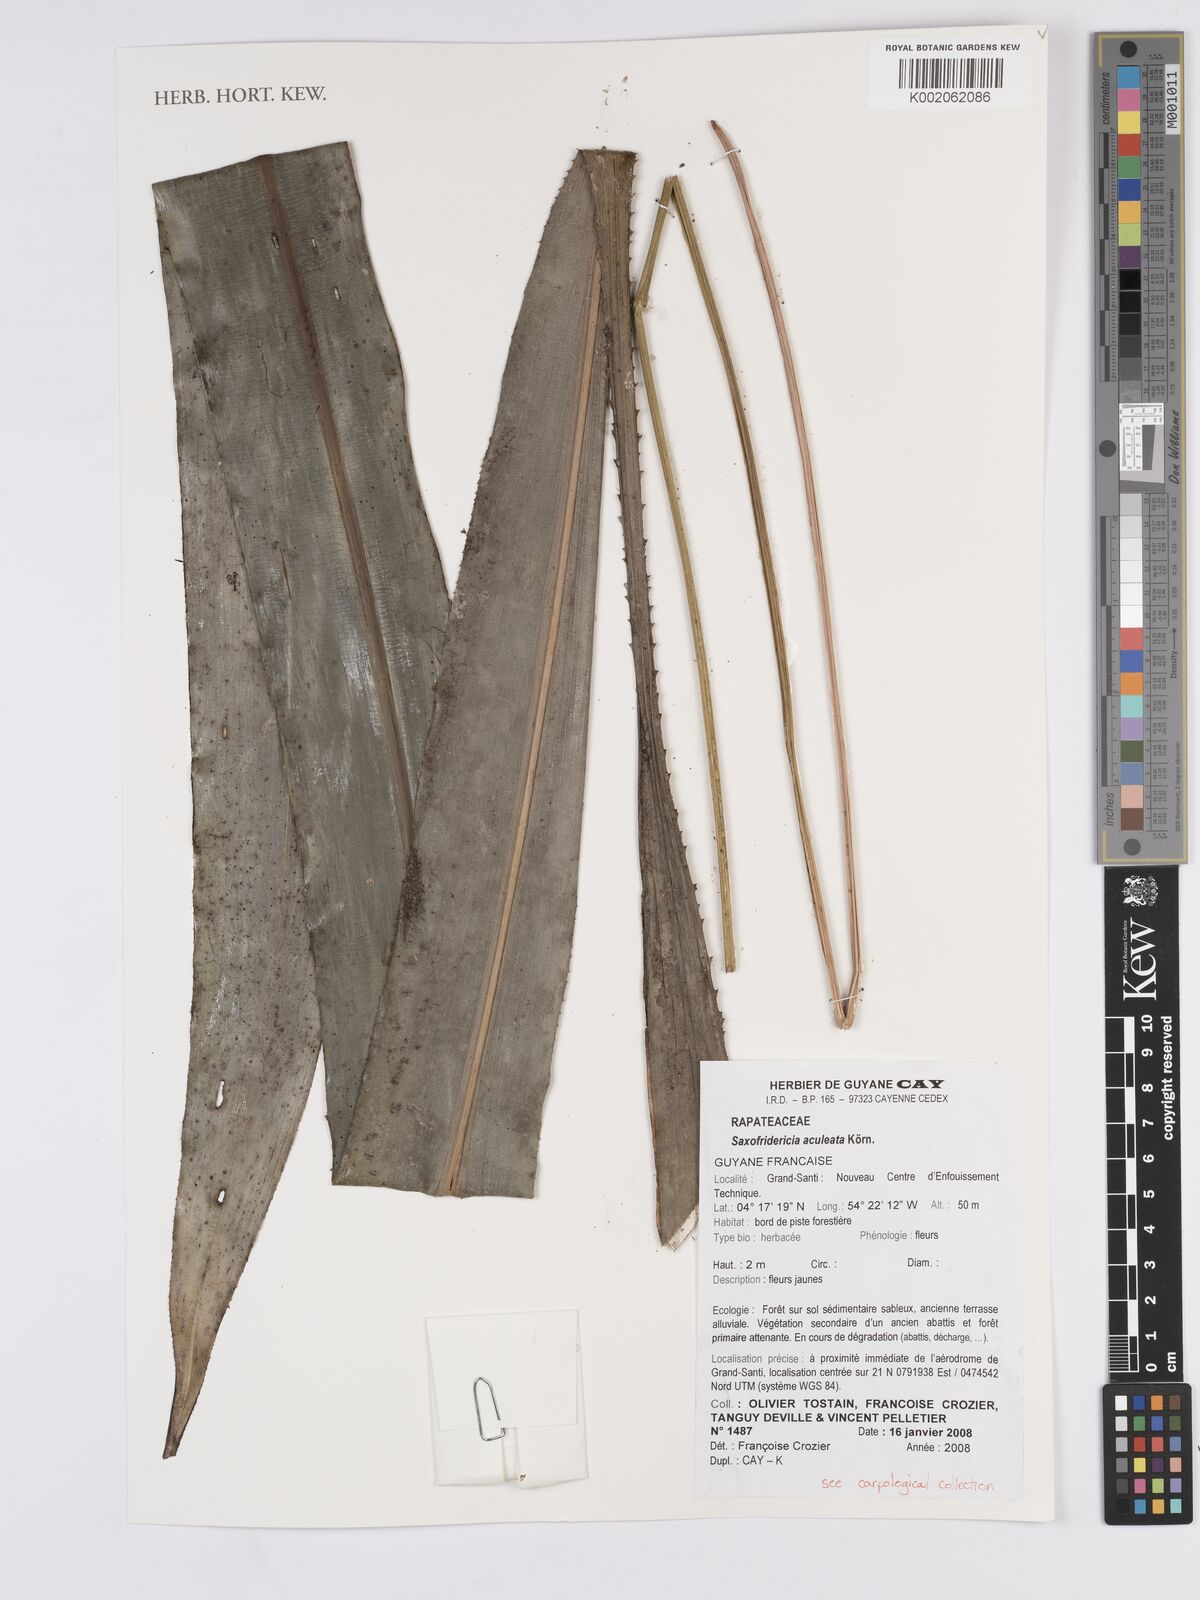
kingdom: Plantae
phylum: Tracheophyta
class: Liliopsida
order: Poales
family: Rapateaceae
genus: Saxofridericia
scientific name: Saxofridericia aculeata
